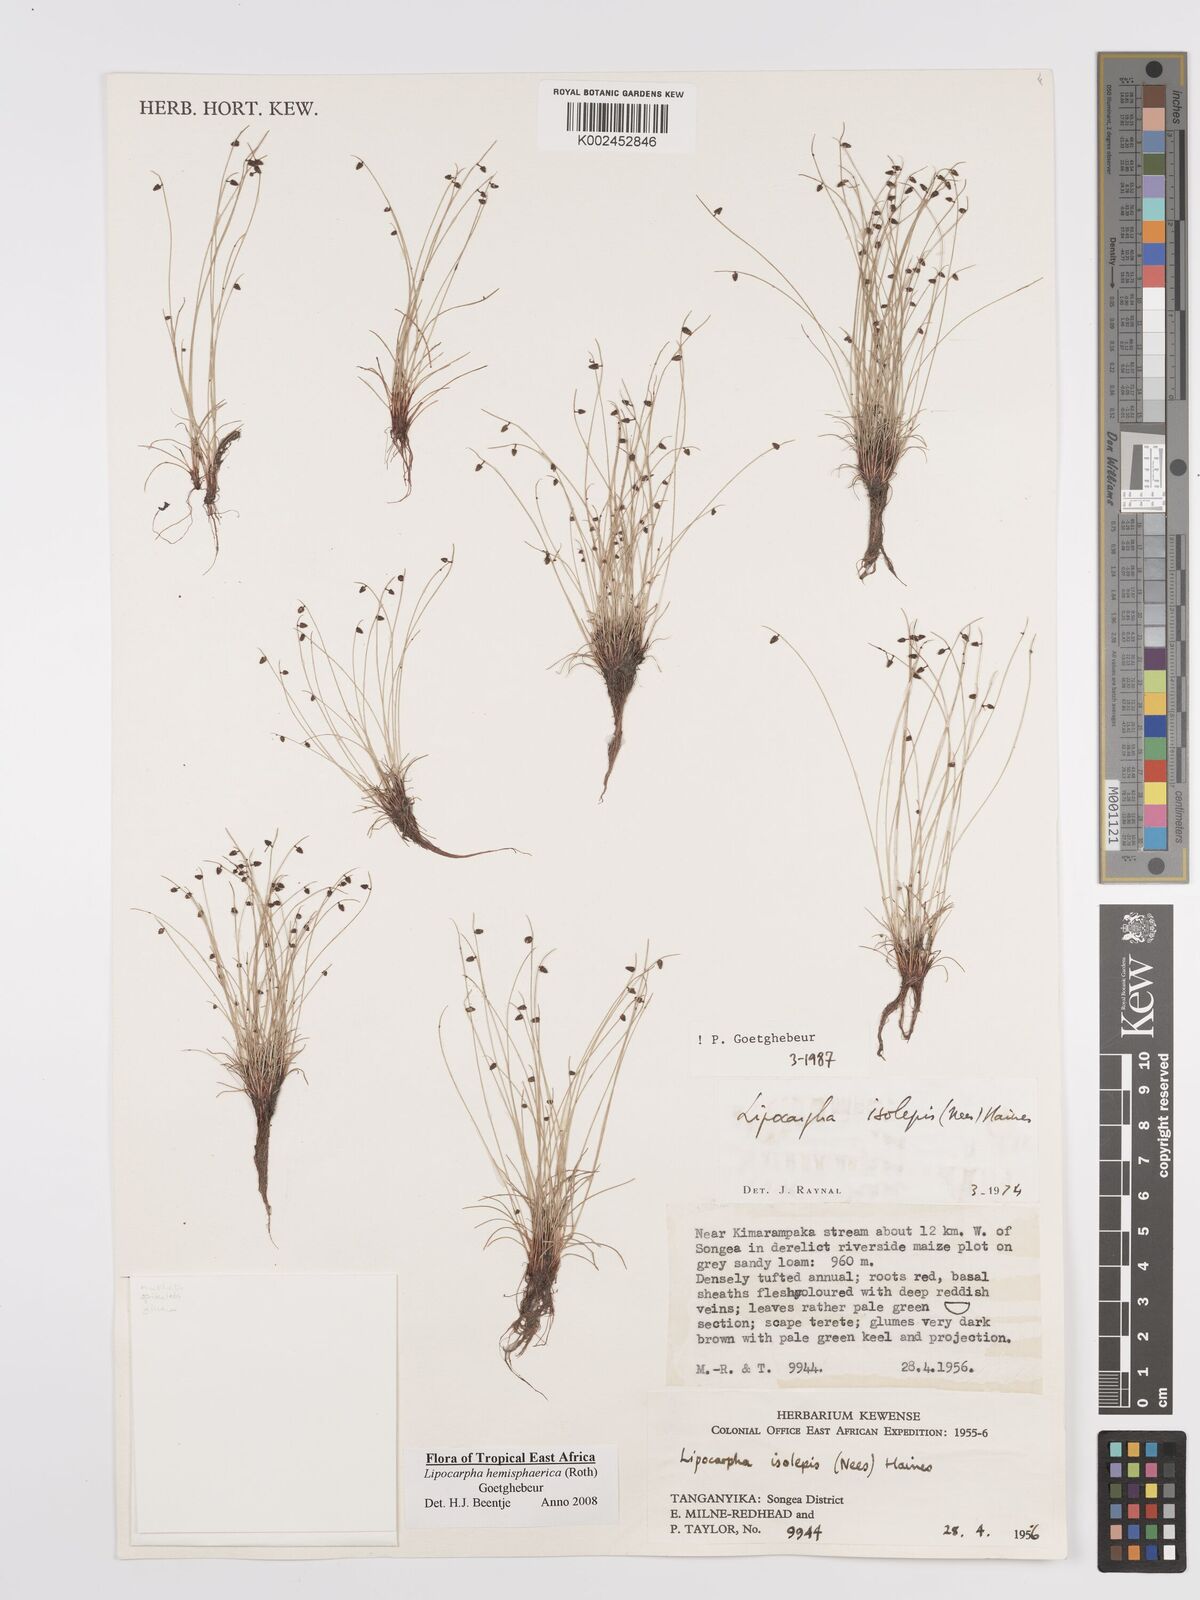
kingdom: Plantae
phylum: Tracheophyta
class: Liliopsida
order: Poales
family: Cyperaceae
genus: Cyperus
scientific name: Cyperus hemisphaericus
